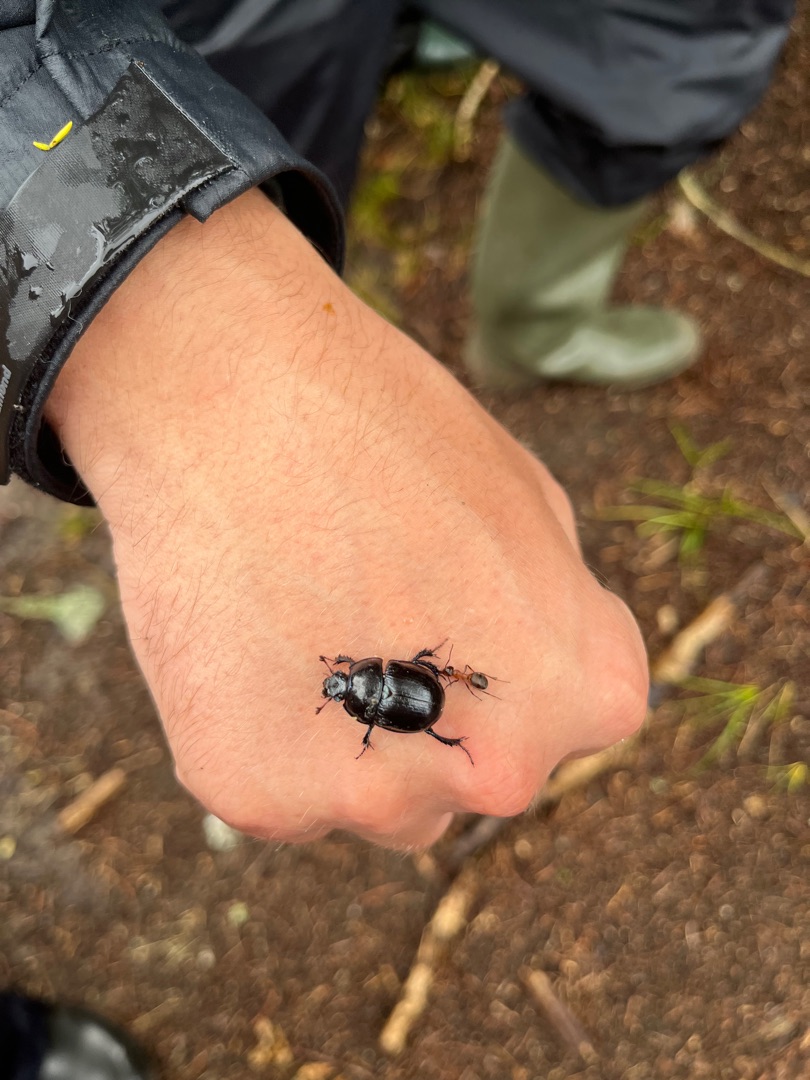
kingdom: Animalia
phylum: Arthropoda
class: Insecta
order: Coleoptera
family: Geotrupidae
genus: Anoplotrupes
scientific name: Anoplotrupes stercorosus
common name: Skovskarnbasse
